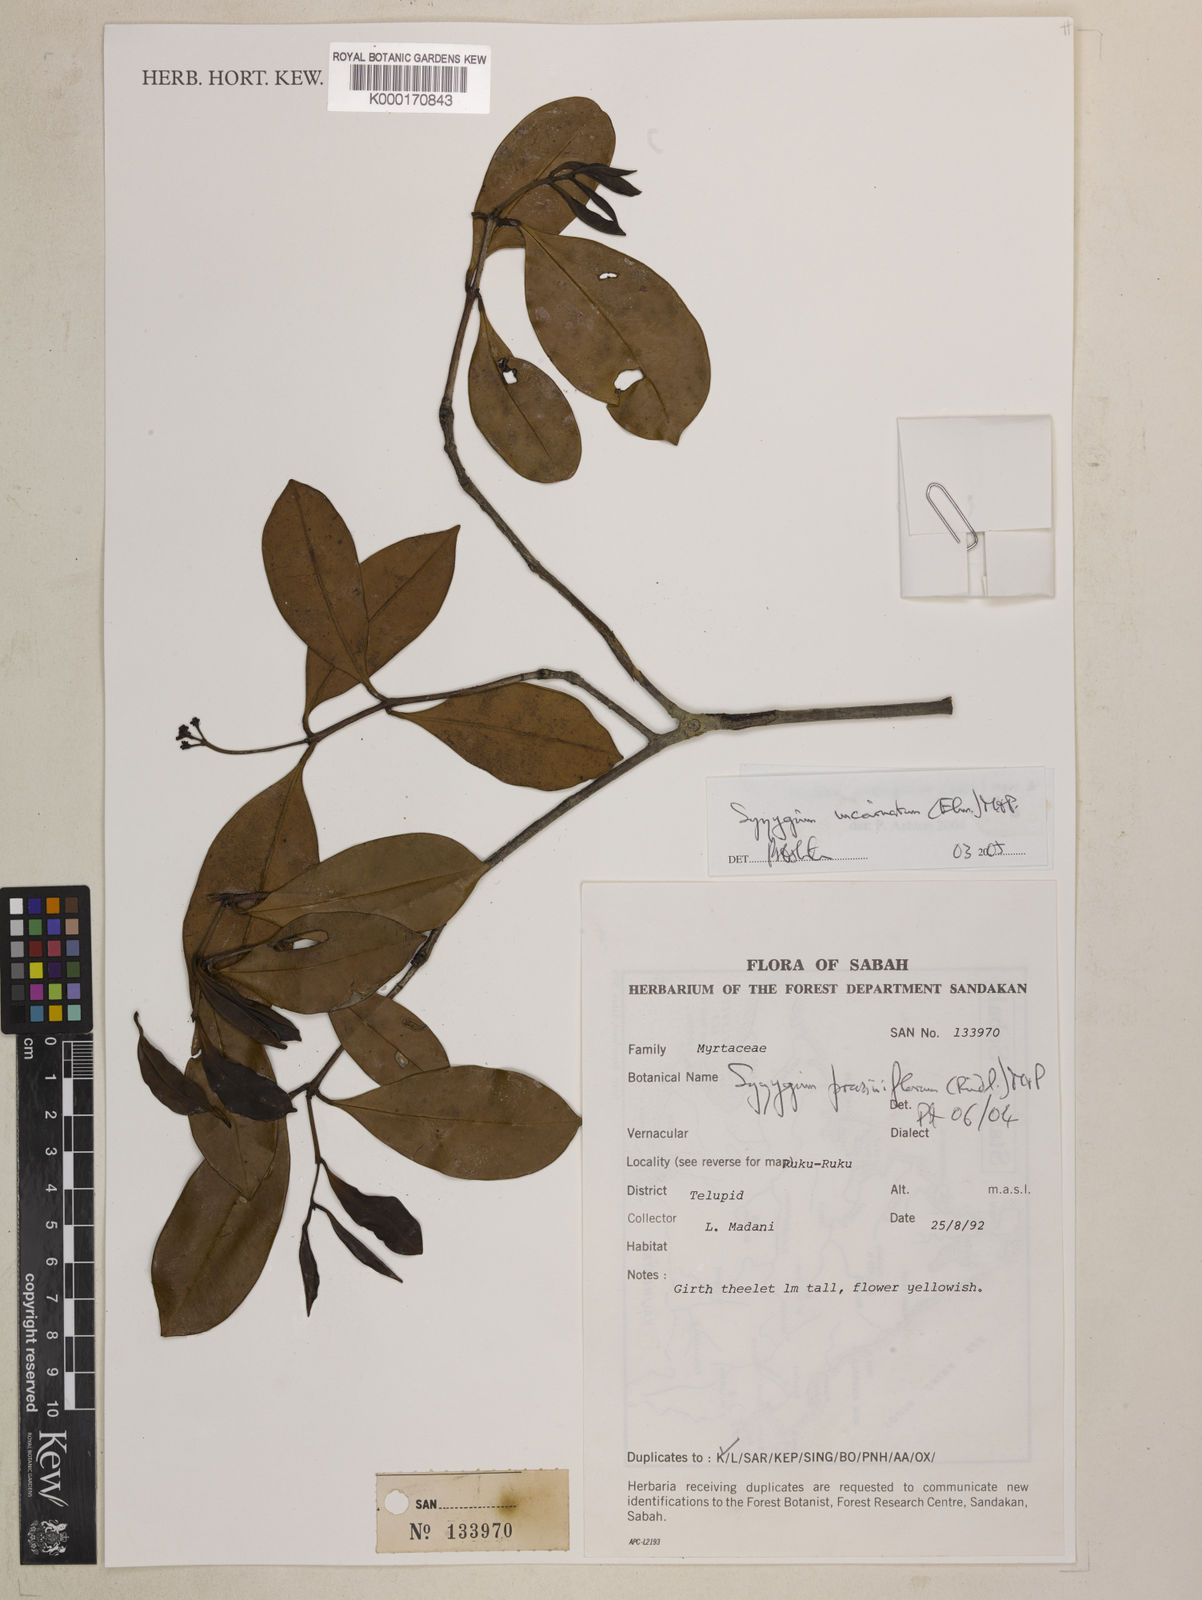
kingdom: Plantae
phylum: Tracheophyta
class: Magnoliopsida
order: Myrtales
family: Myrtaceae
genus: Syzygium
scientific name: Syzygium prasiniflorum
